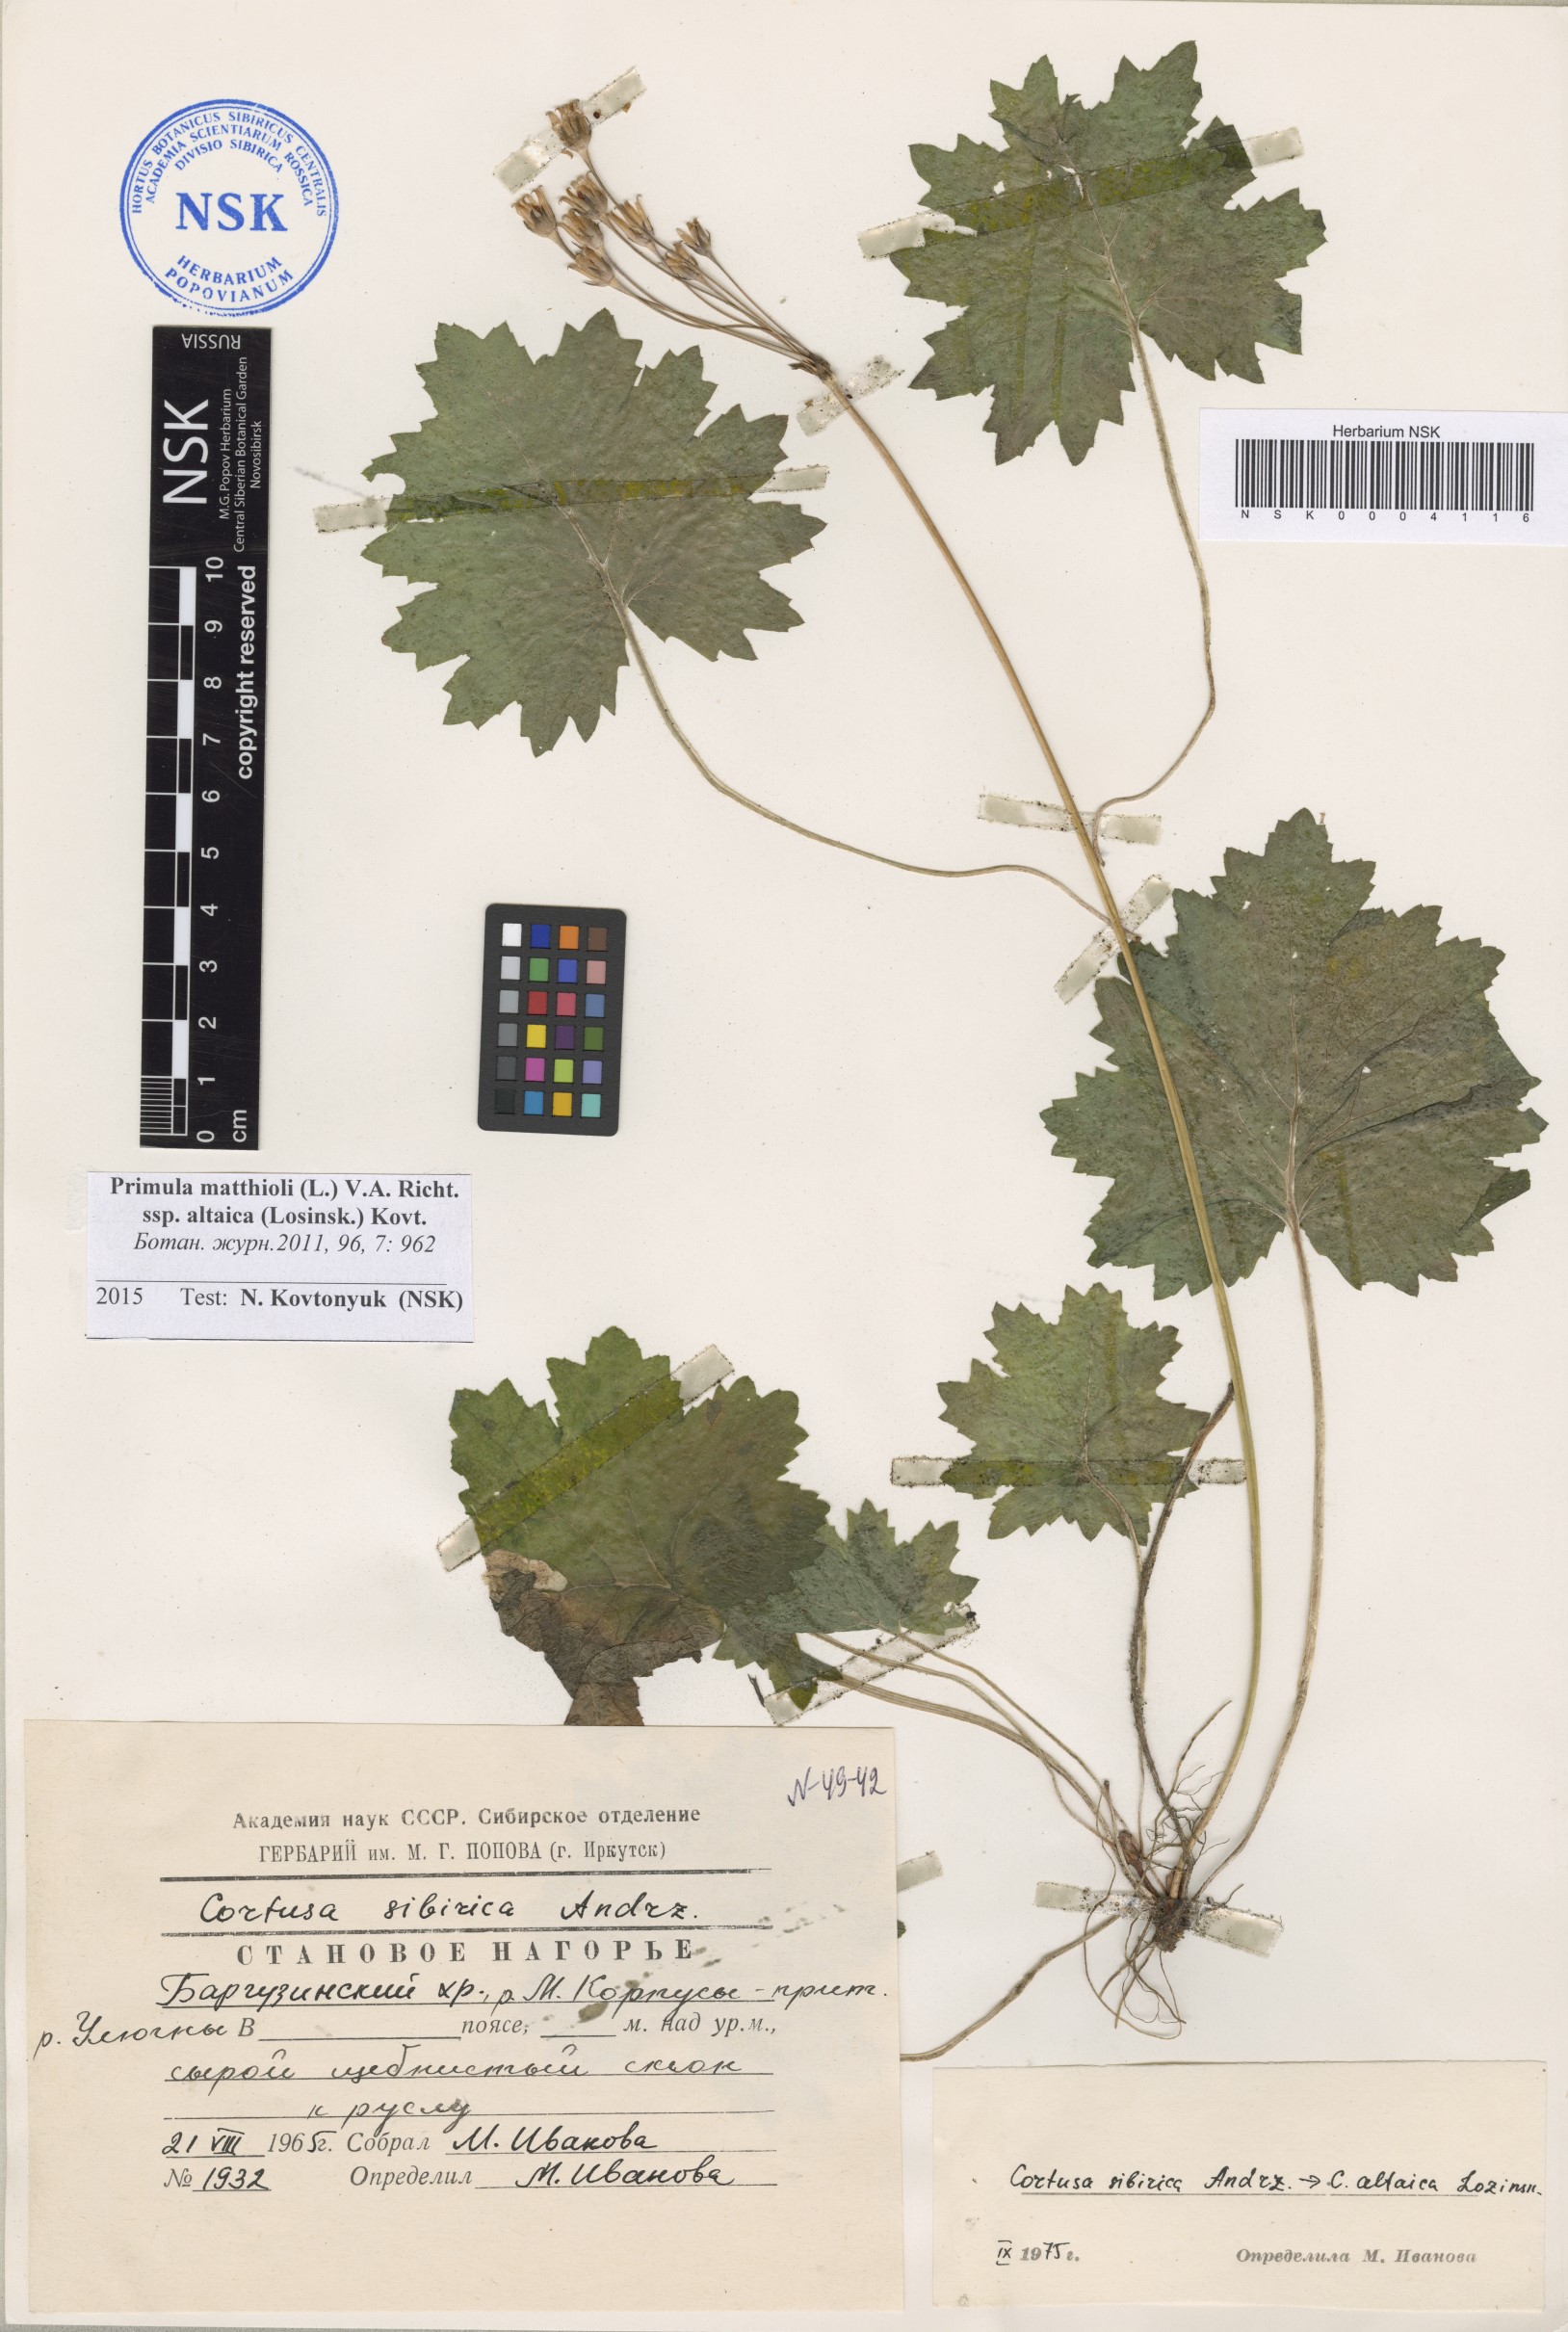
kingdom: Plantae
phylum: Tracheophyta
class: Magnoliopsida
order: Ericales
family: Primulaceae
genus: Primula
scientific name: Primula matthioli
